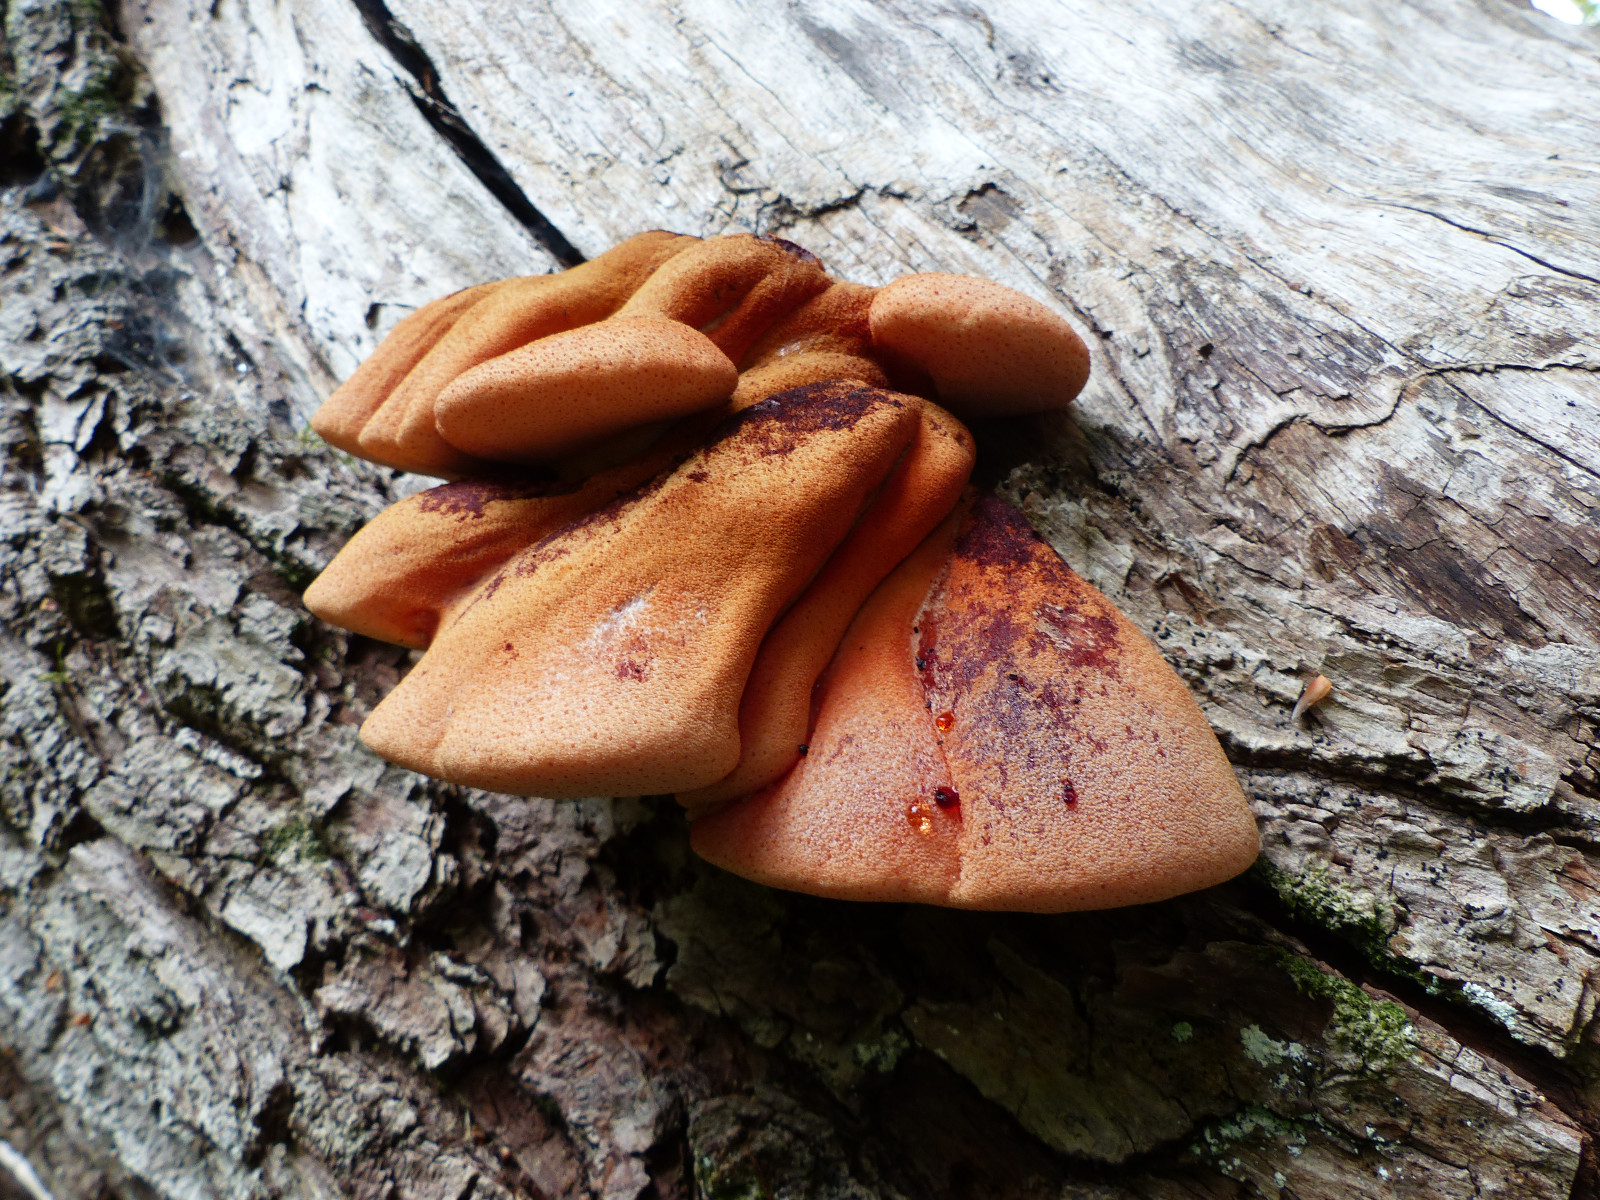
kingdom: Fungi
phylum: Basidiomycota
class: Agaricomycetes
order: Agaricales
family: Fistulinaceae
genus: Fistulina
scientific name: Fistulina hepatica
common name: oksetunge
